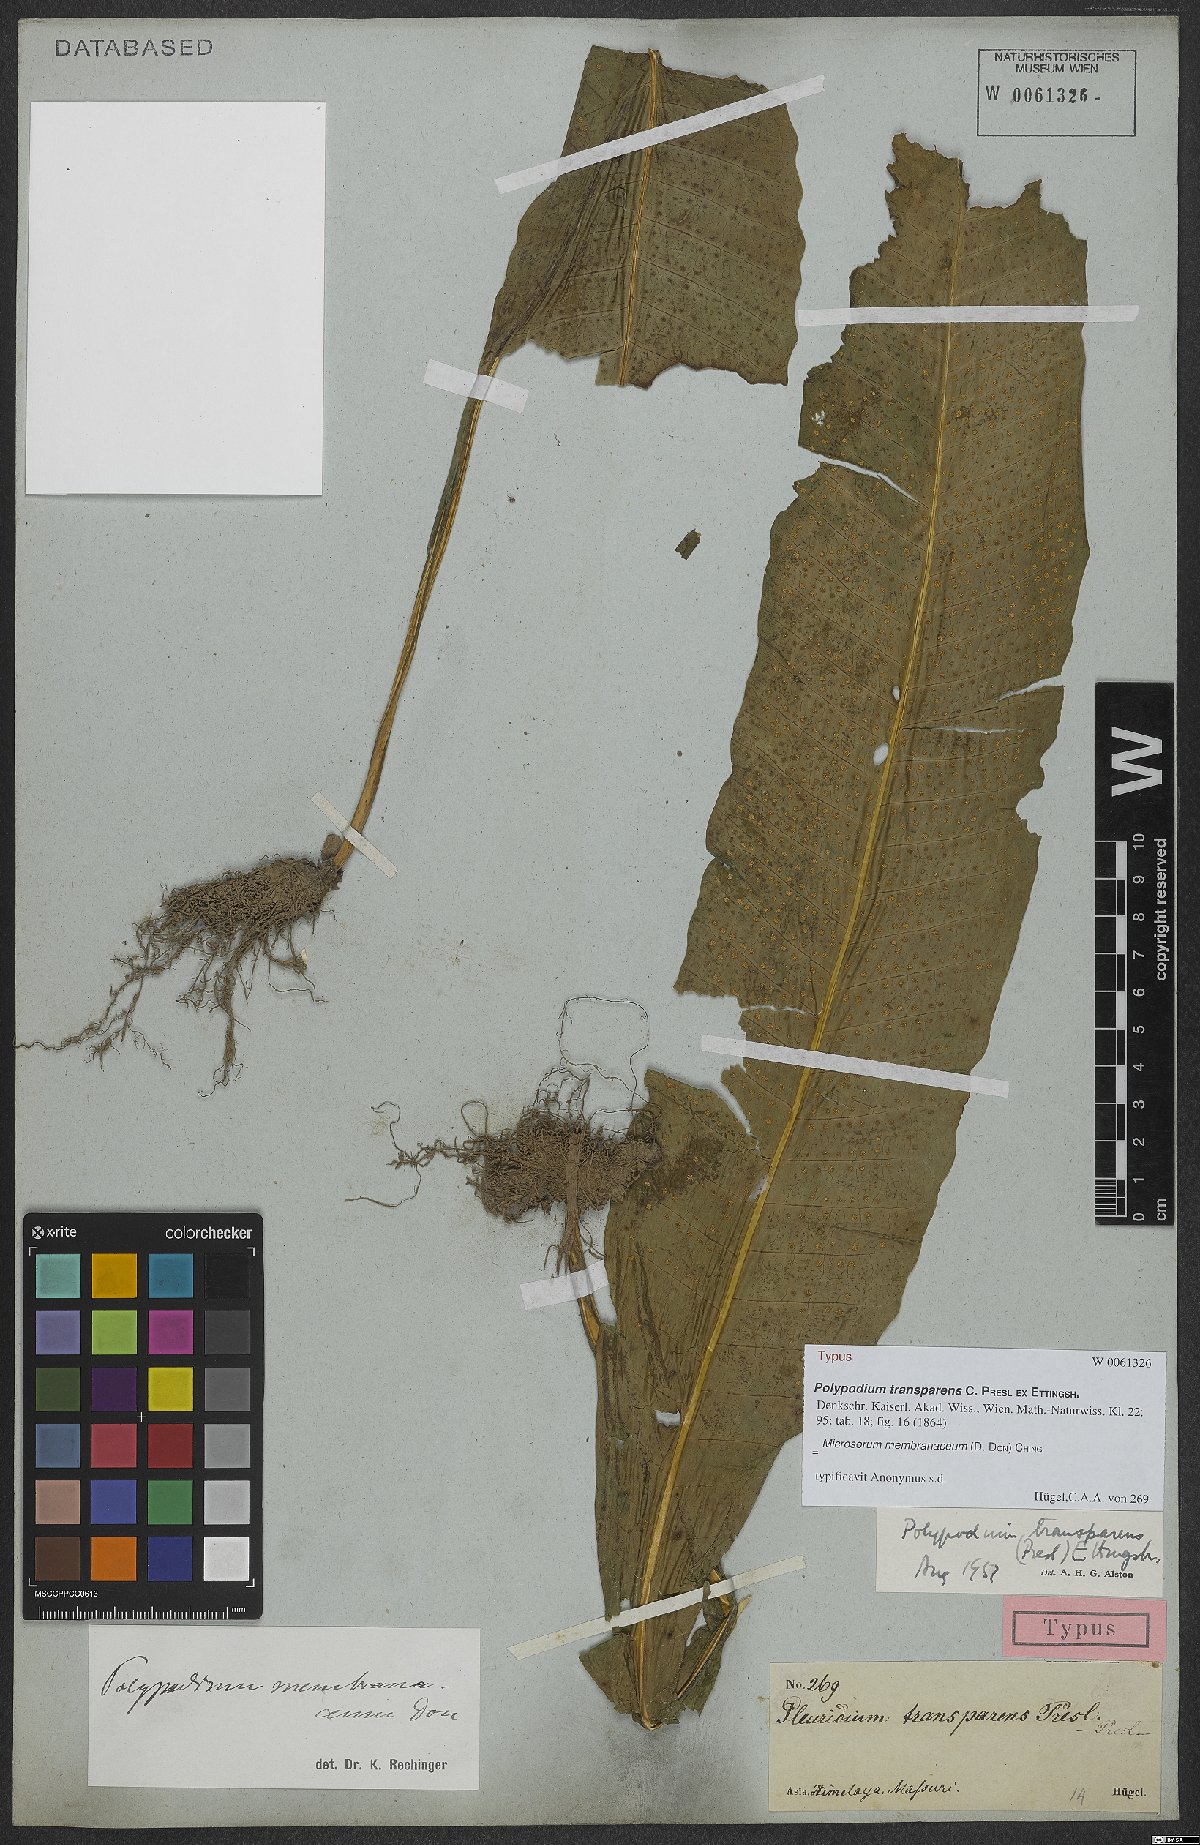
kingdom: Plantae
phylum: Tracheophyta
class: Polypodiopsida
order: Polypodiales
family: Polypodiaceae
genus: Bosmania
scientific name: Bosmania membranacea
